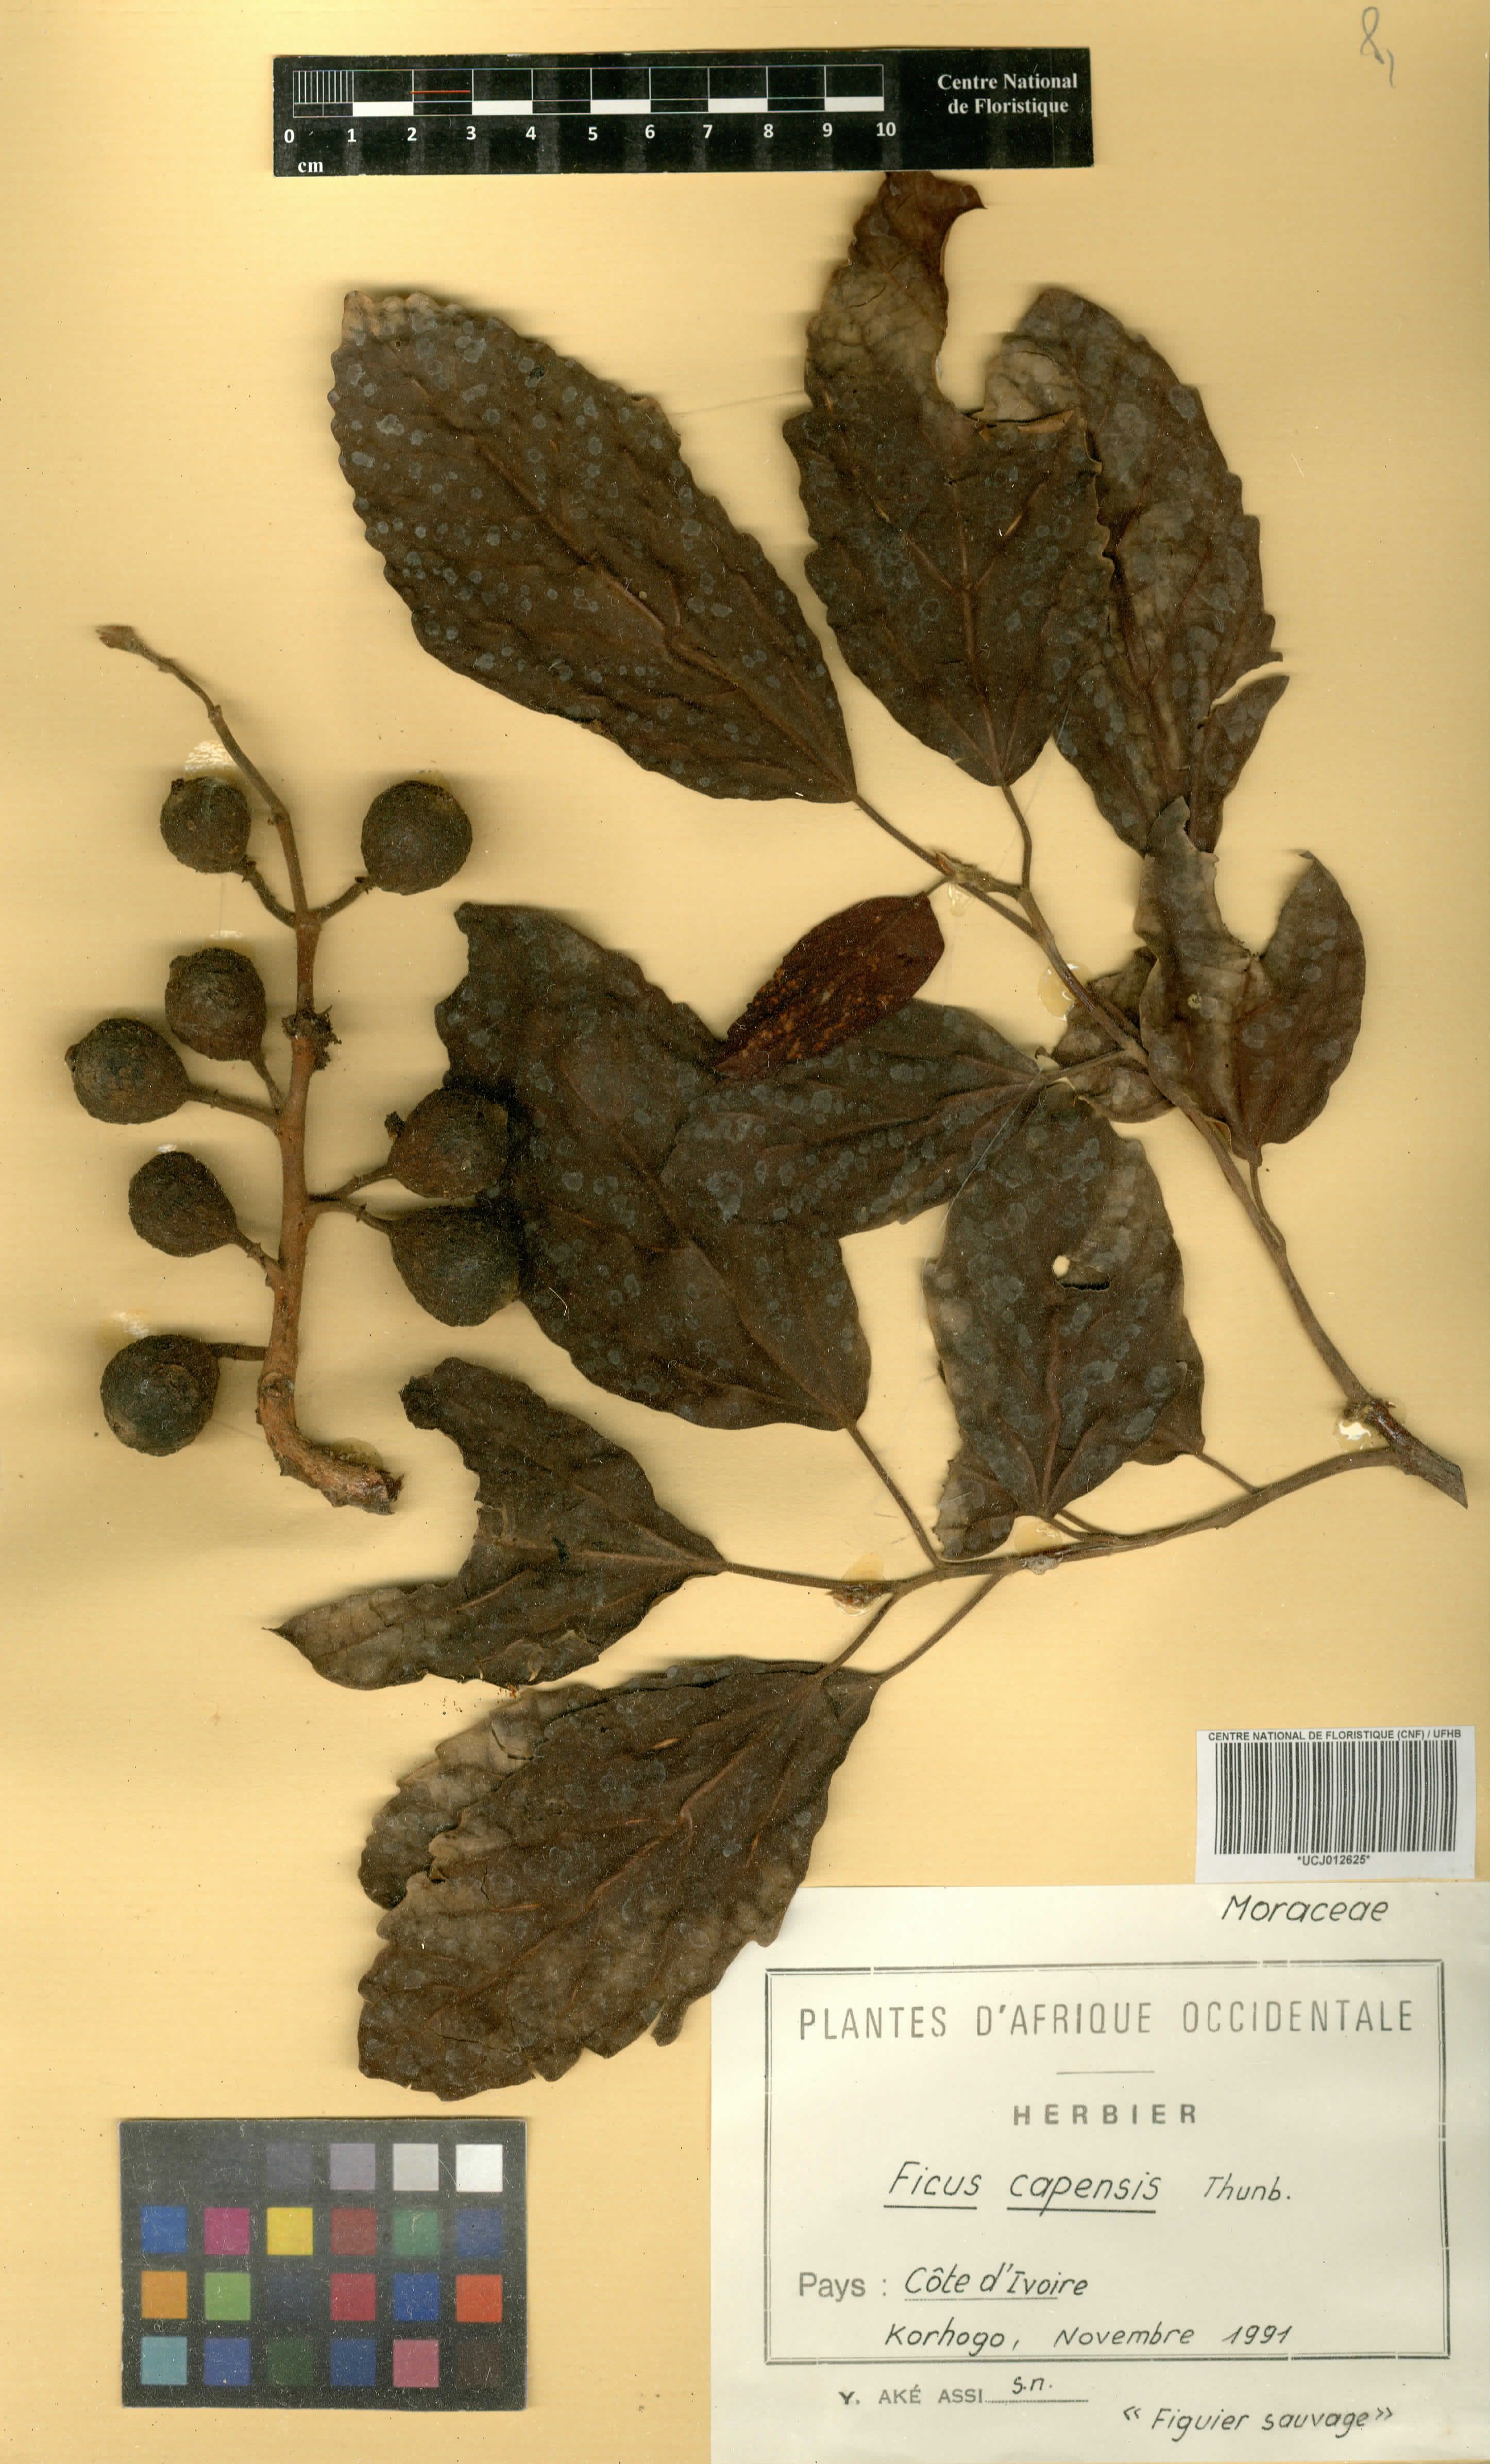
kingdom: Plantae
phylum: Tracheophyta
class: Magnoliopsida
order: Rosales
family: Moraceae
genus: Ficus
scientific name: Ficus sur
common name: Cape fig
